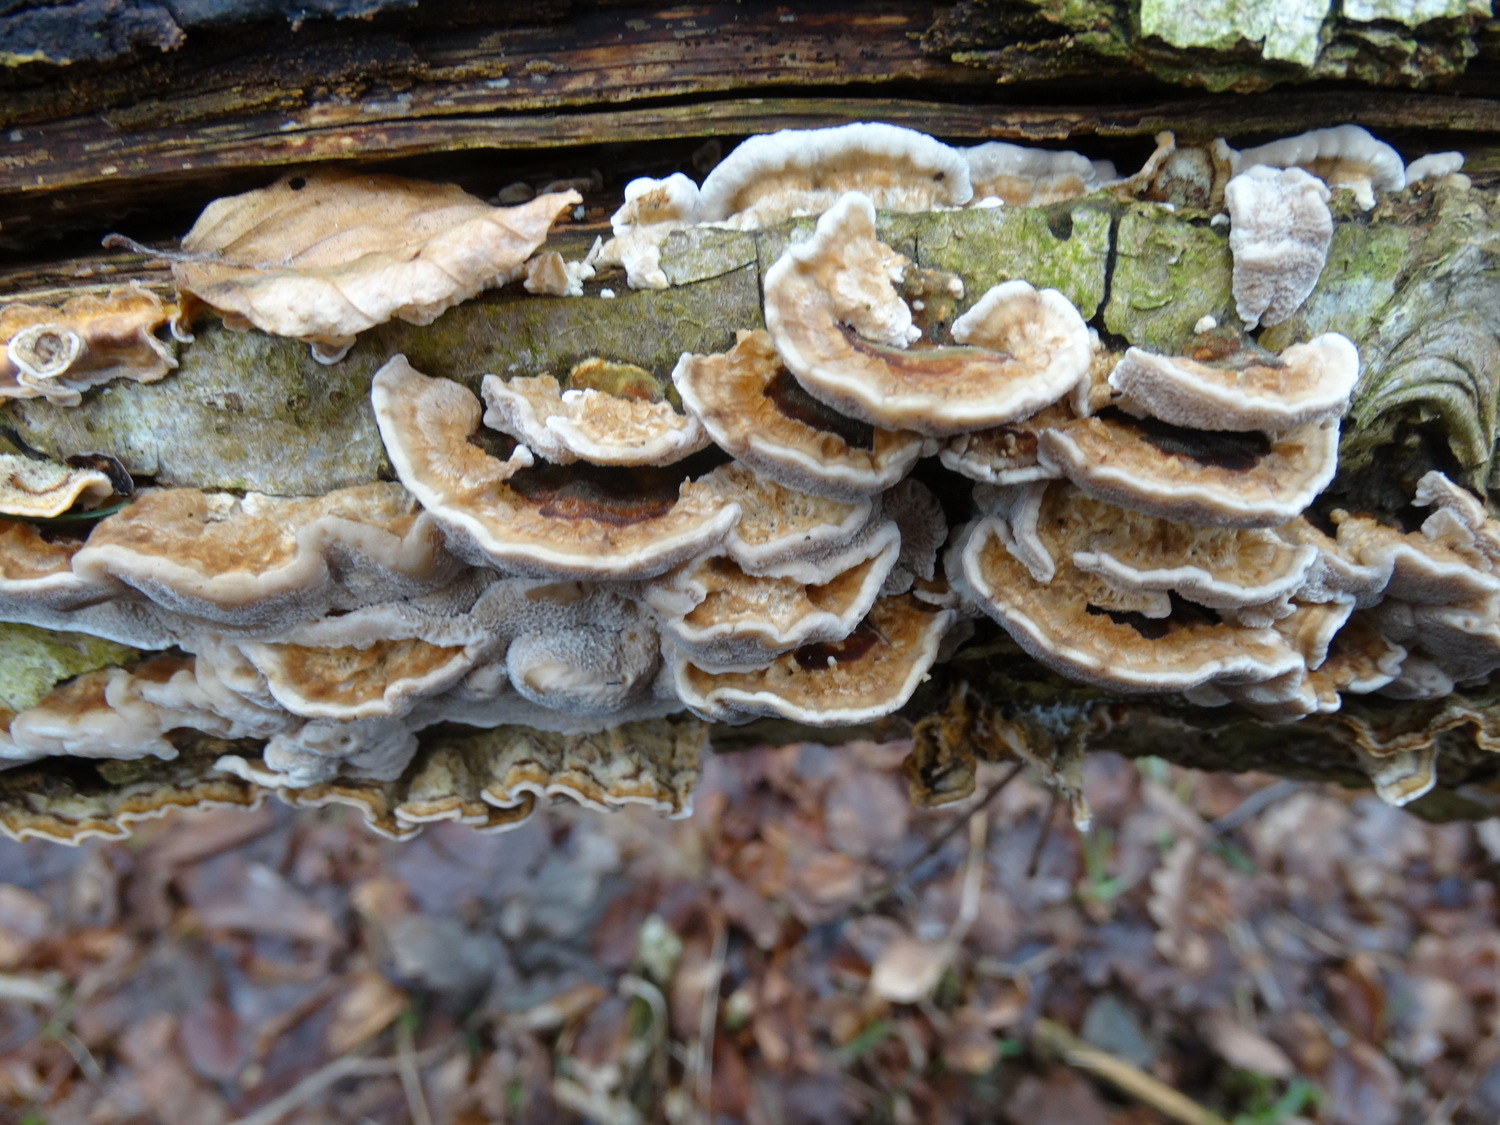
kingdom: Fungi
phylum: Basidiomycota
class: Agaricomycetes
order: Polyporales
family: Polyporaceae
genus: Trametes
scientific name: Trametes
